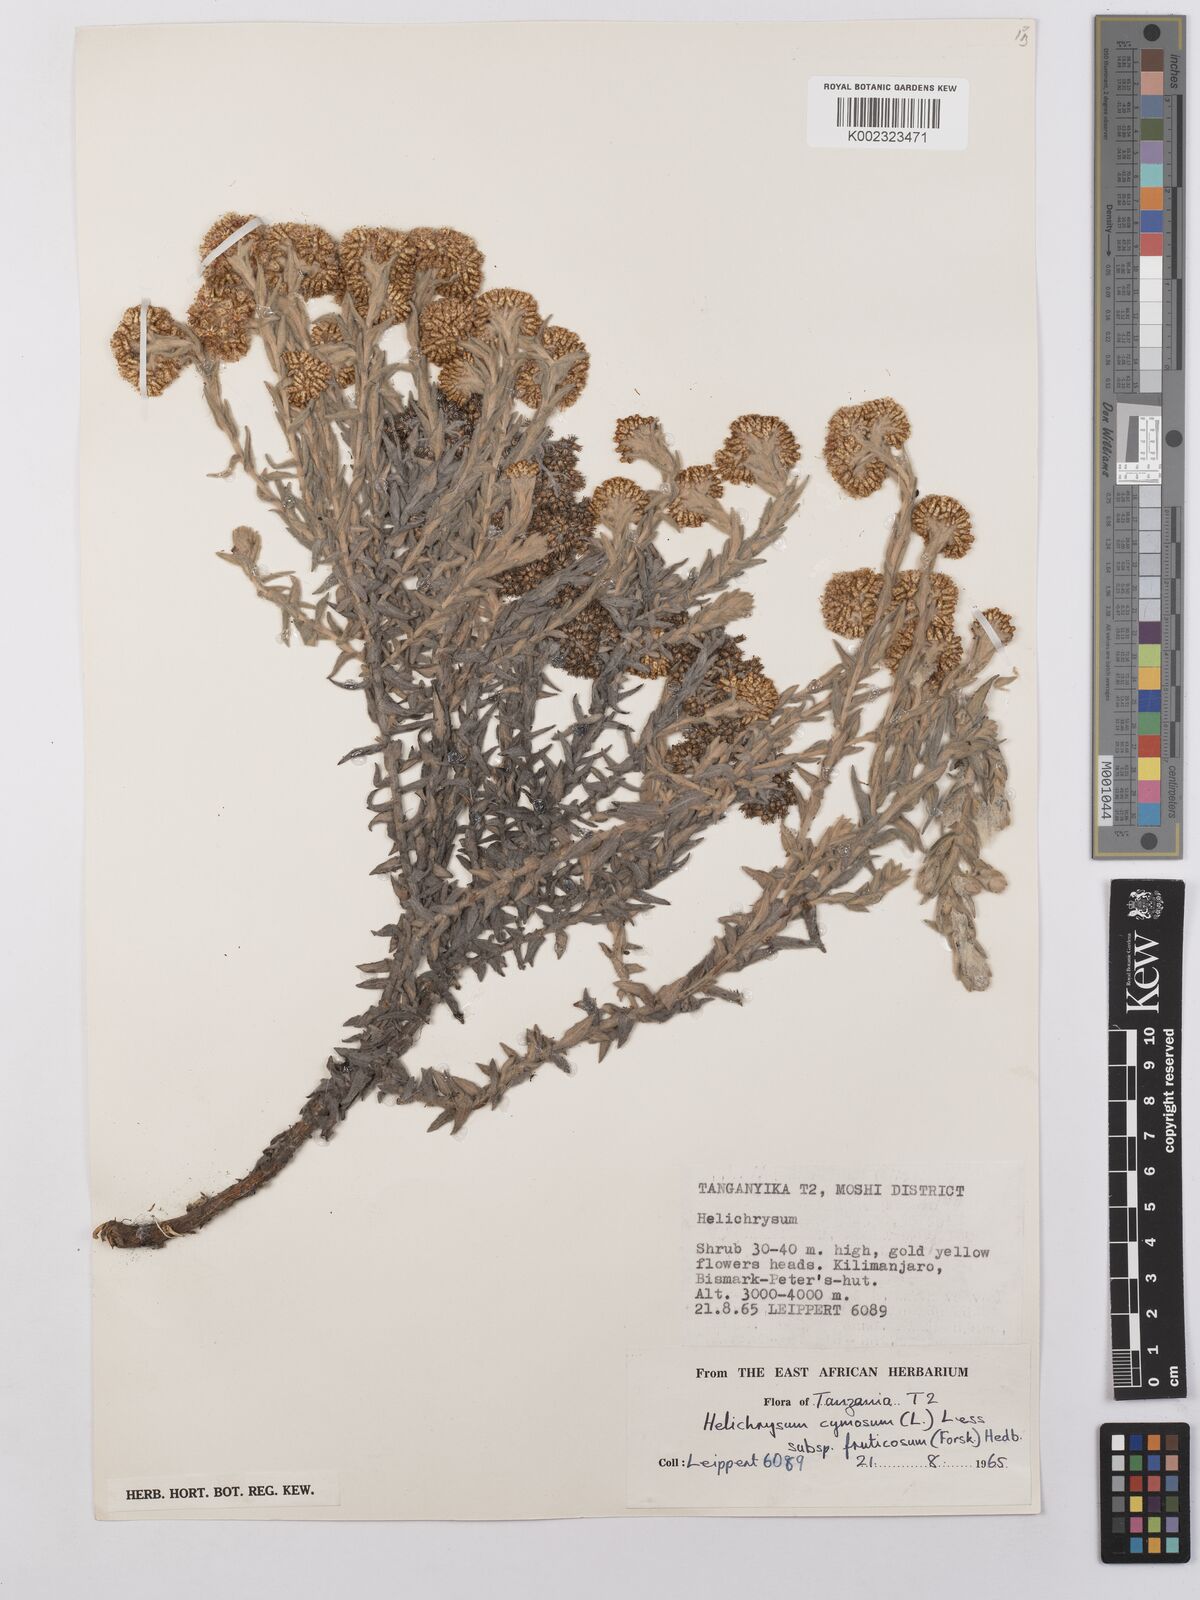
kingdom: Plantae
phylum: Tracheophyta
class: Magnoliopsida
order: Asterales
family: Asteraceae
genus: Helichrysum
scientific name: Helichrysum forskahlii
